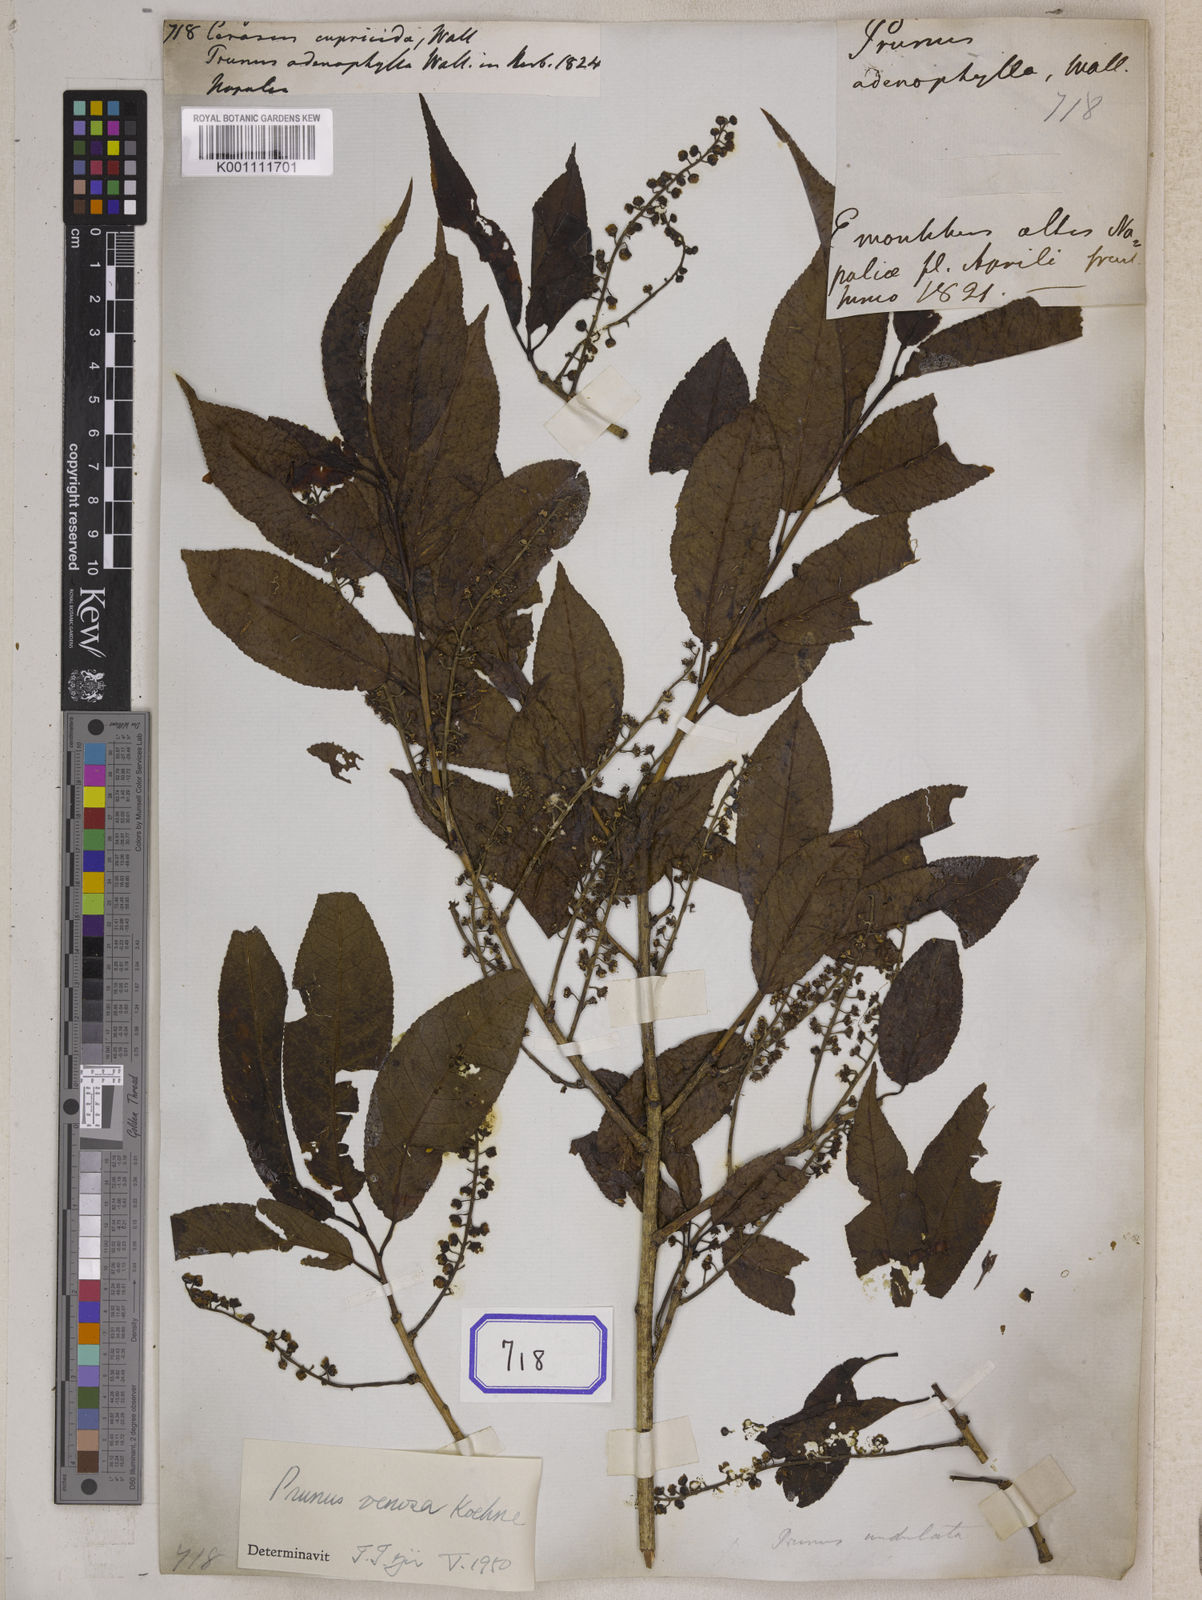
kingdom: Plantae
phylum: Tracheophyta
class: Magnoliopsida
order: Rosales
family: Rosaceae
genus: Prunus
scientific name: Prunus undulata
